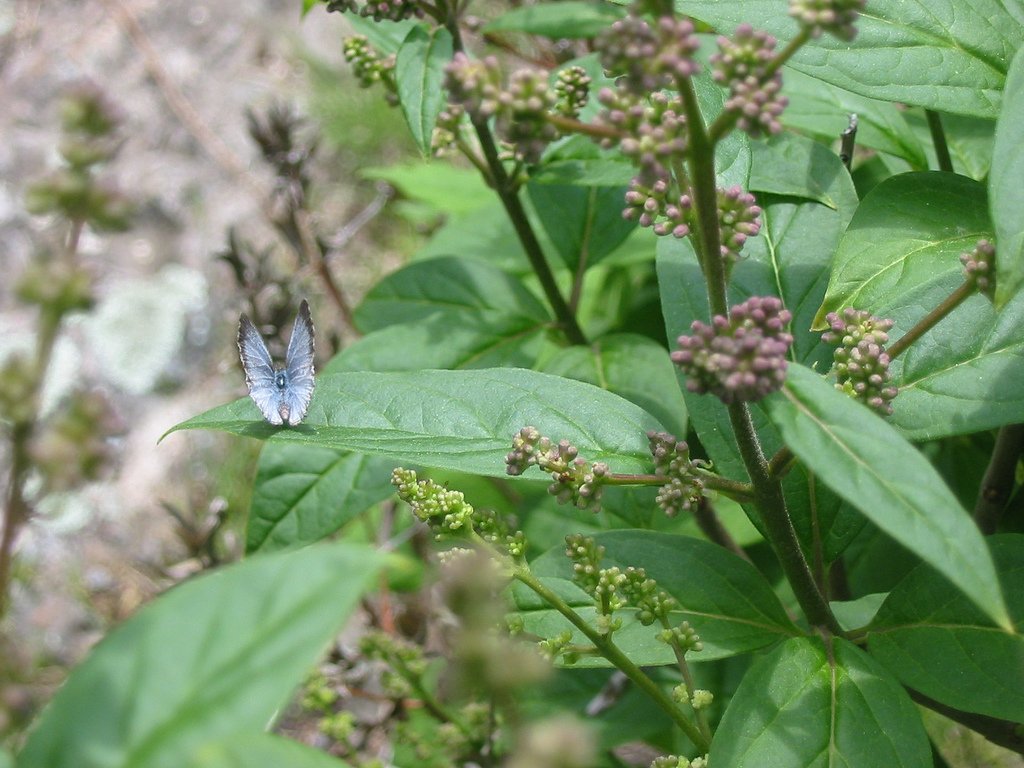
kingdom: Animalia
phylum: Arthropoda
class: Insecta
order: Lepidoptera
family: Lycaenidae
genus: Celastrina
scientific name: Celastrina lucia
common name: Northern Spring Azure
